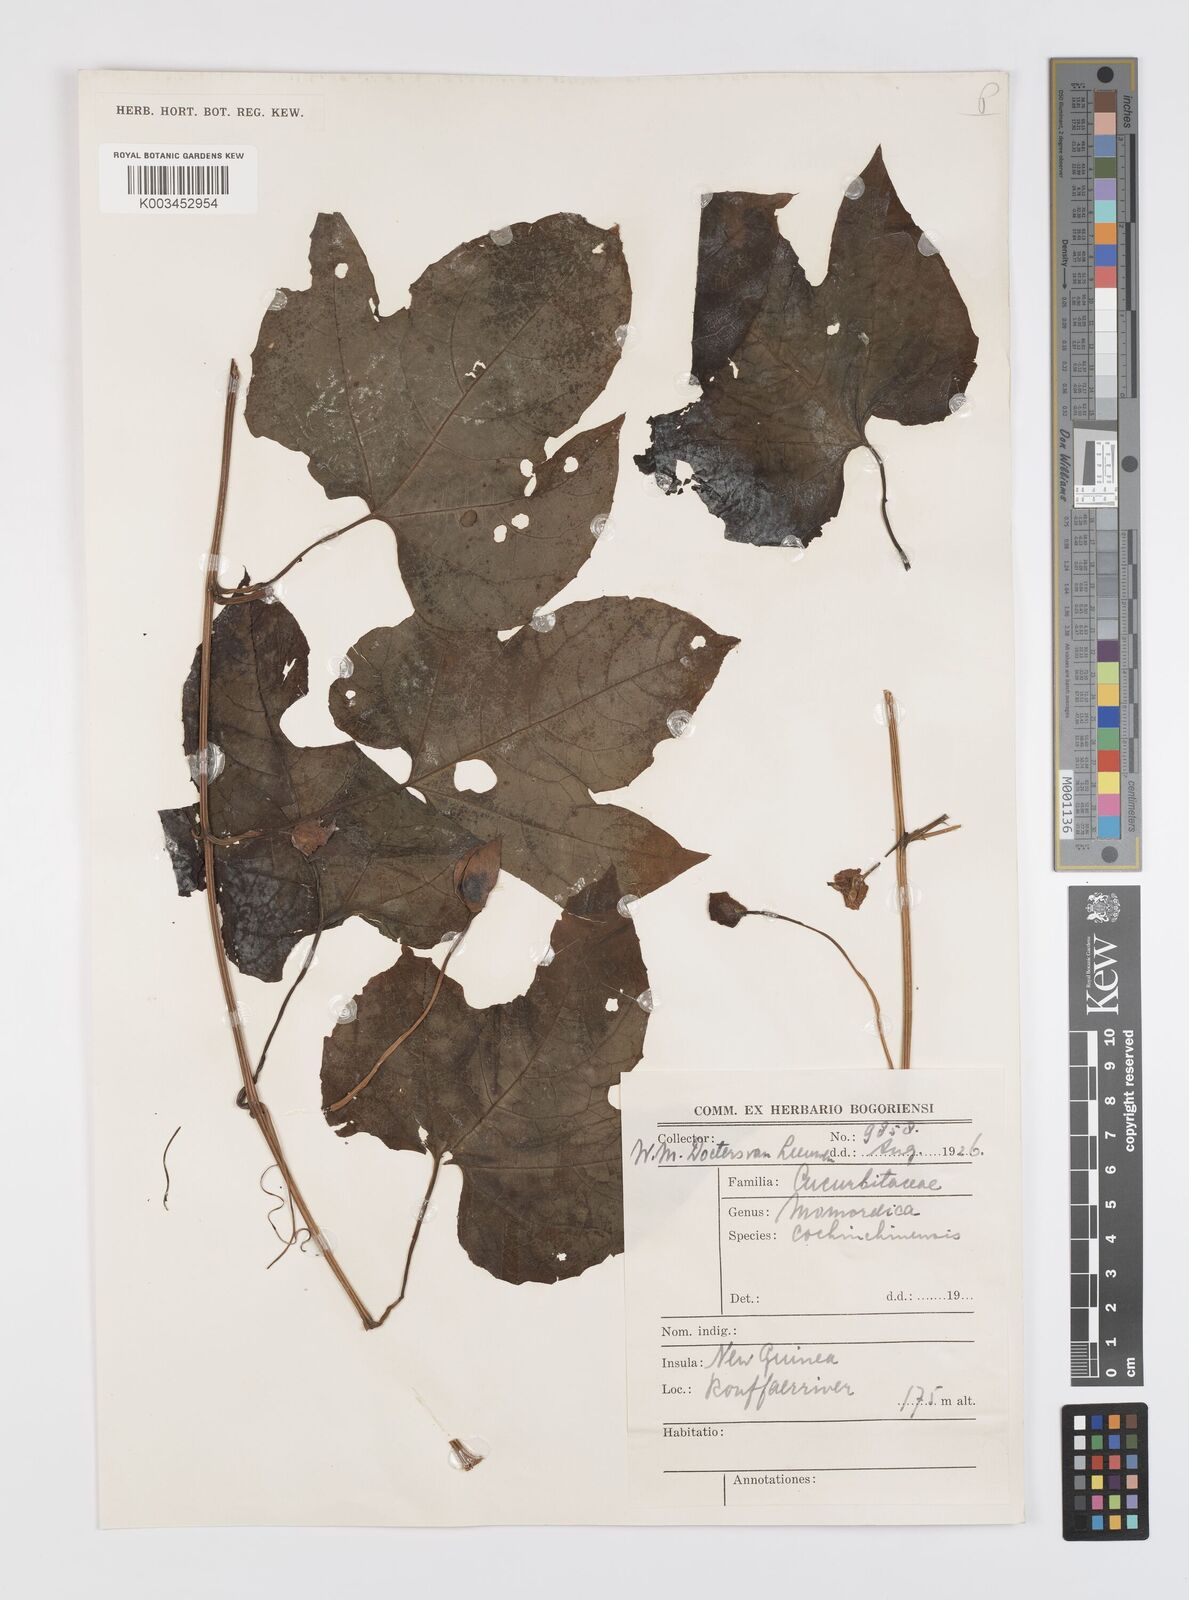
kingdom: Plantae
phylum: Tracheophyta
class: Magnoliopsida
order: Cucurbitales
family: Cucurbitaceae
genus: Momordica
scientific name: Momordica cochinchinensis
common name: Chinese bitter-cucumber
